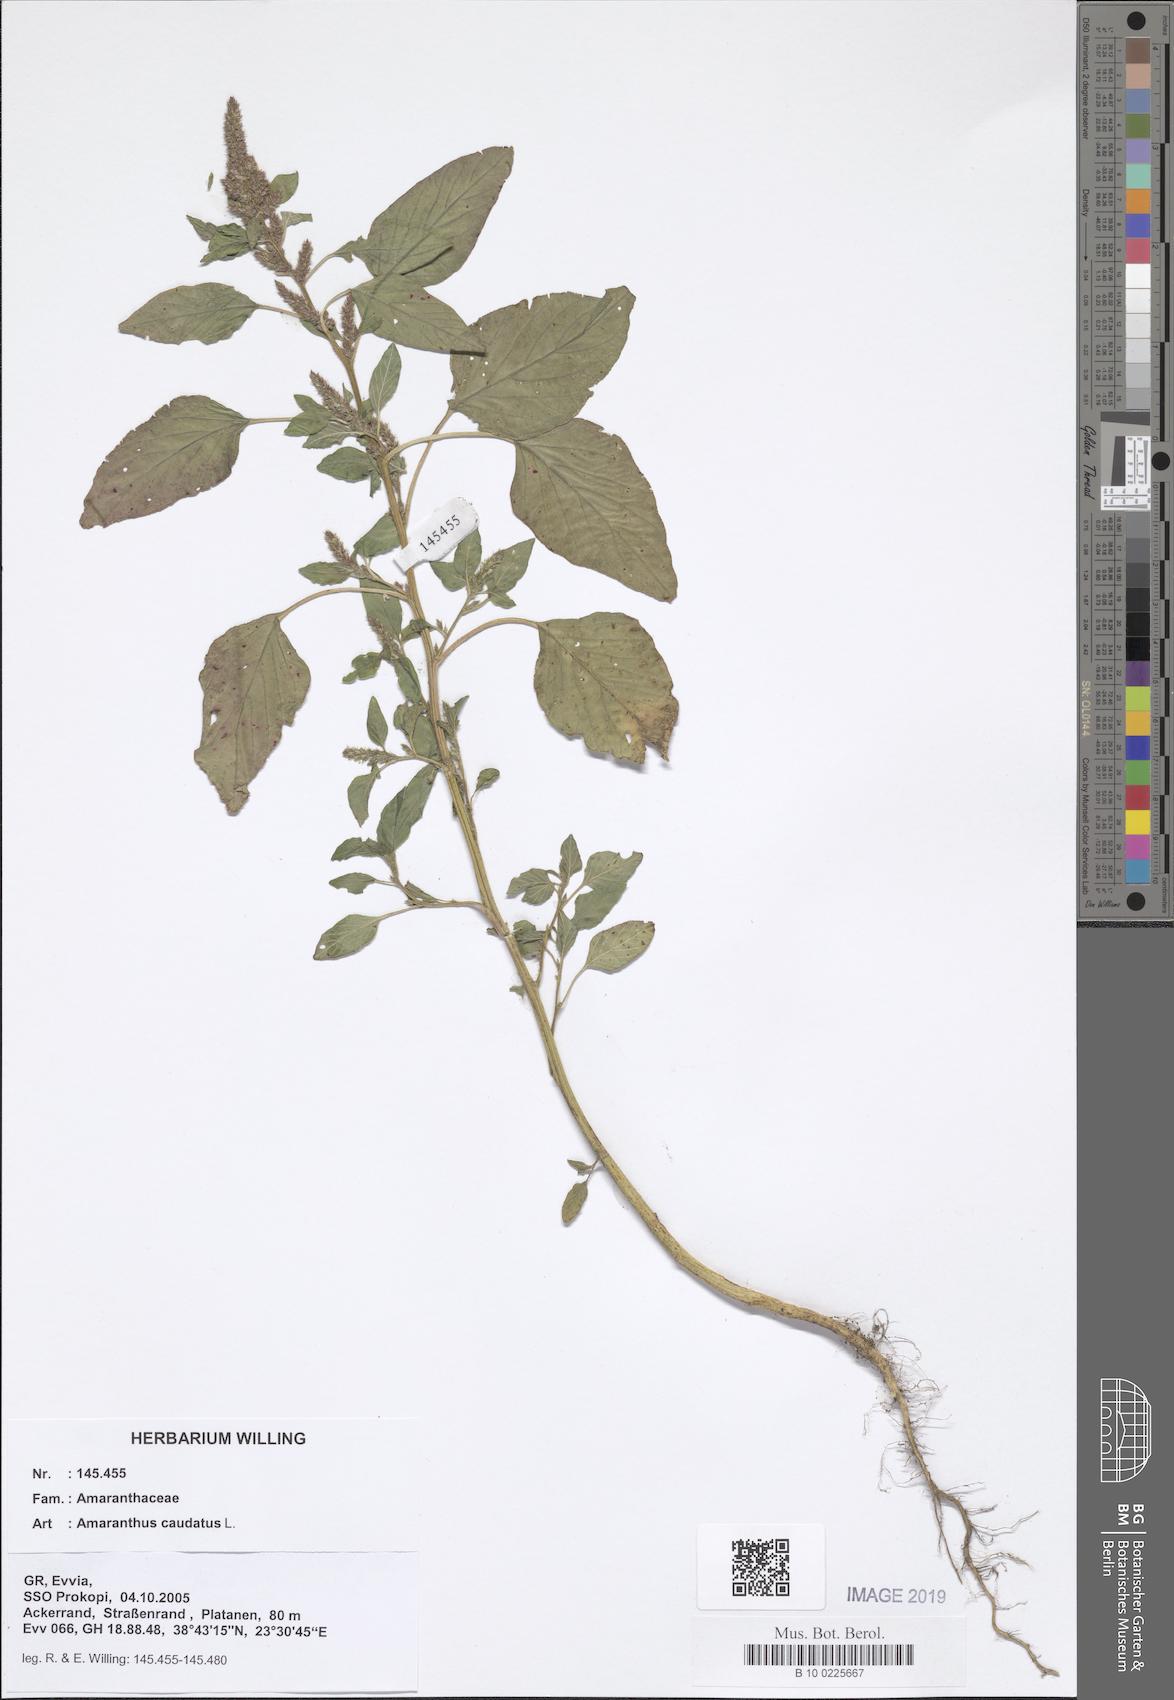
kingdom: Plantae
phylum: Tracheophyta
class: Magnoliopsida
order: Caryophyllales
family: Amaranthaceae
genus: Amaranthus
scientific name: Amaranthus caudatus
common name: Love-lies-bleeding
